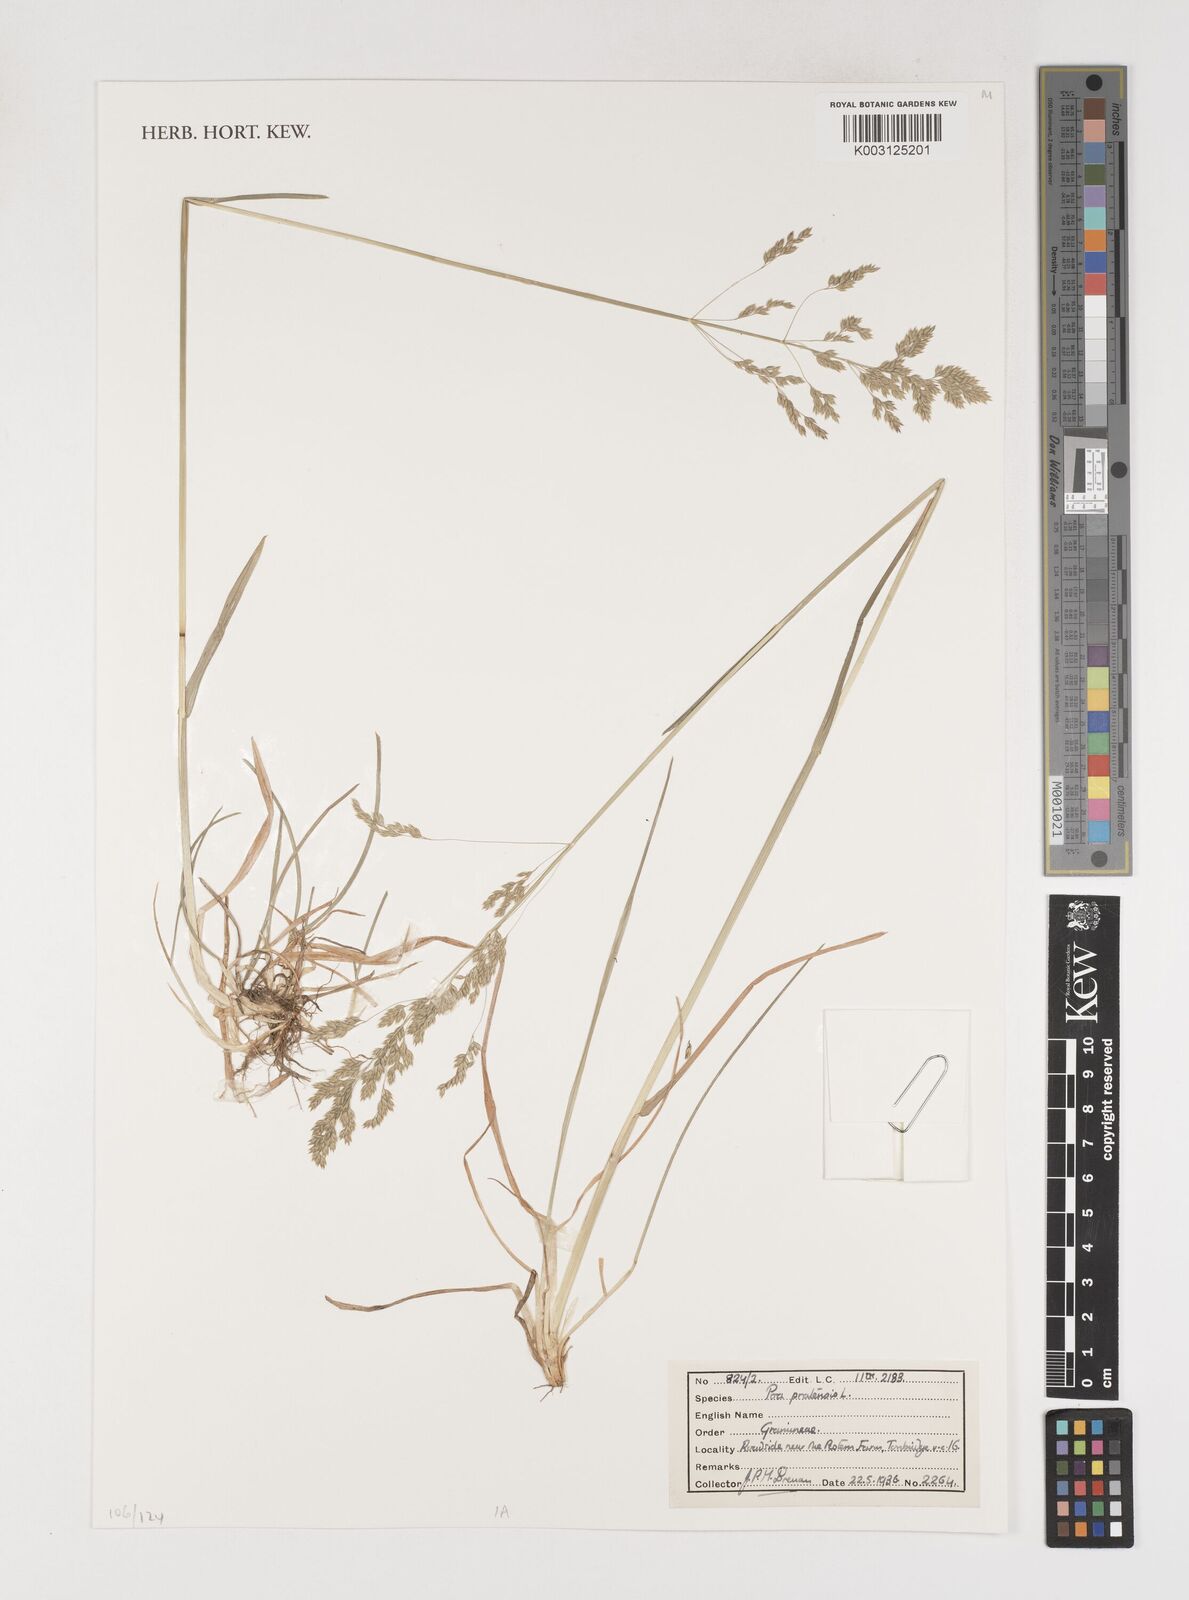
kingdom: Plantae
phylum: Tracheophyta
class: Liliopsida
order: Poales
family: Poaceae
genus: Poa
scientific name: Poa pratensis
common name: Kentucky bluegrass
